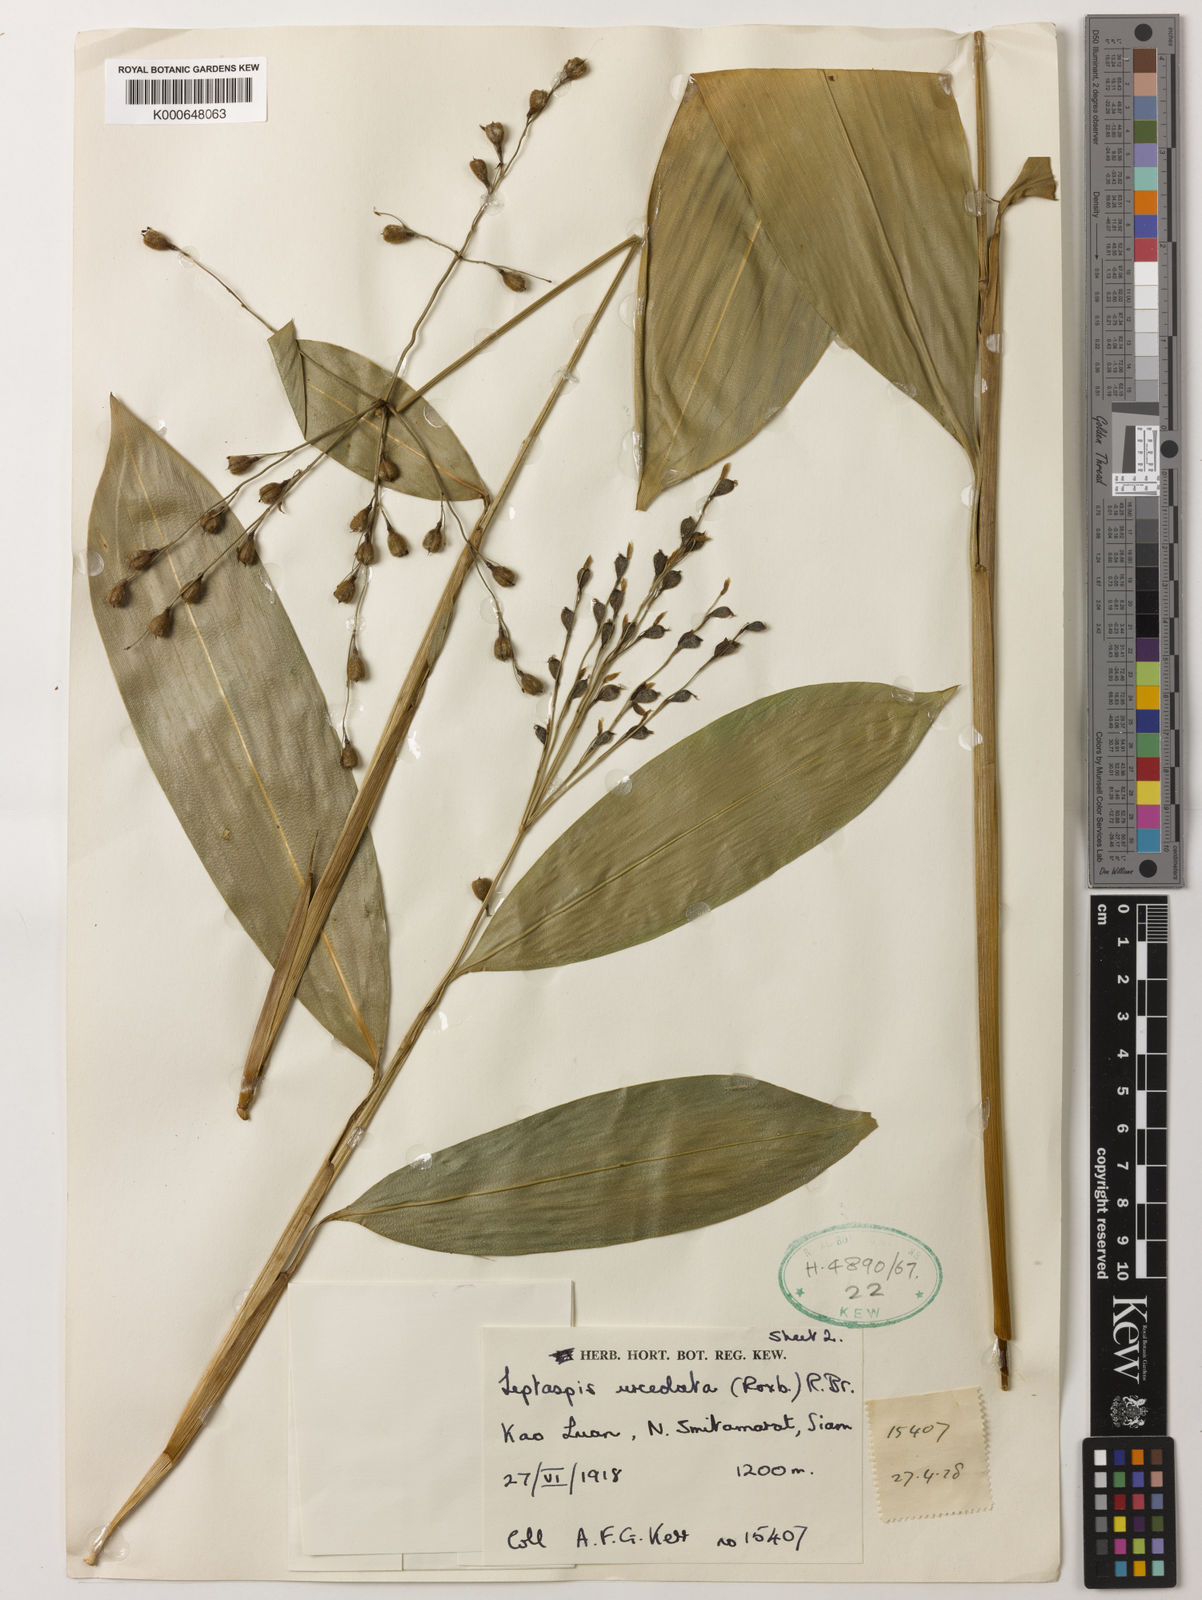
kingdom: Plantae
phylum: Tracheophyta
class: Liliopsida
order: Poales
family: Poaceae
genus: Scrotochloa
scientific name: Scrotochloa urceolata
